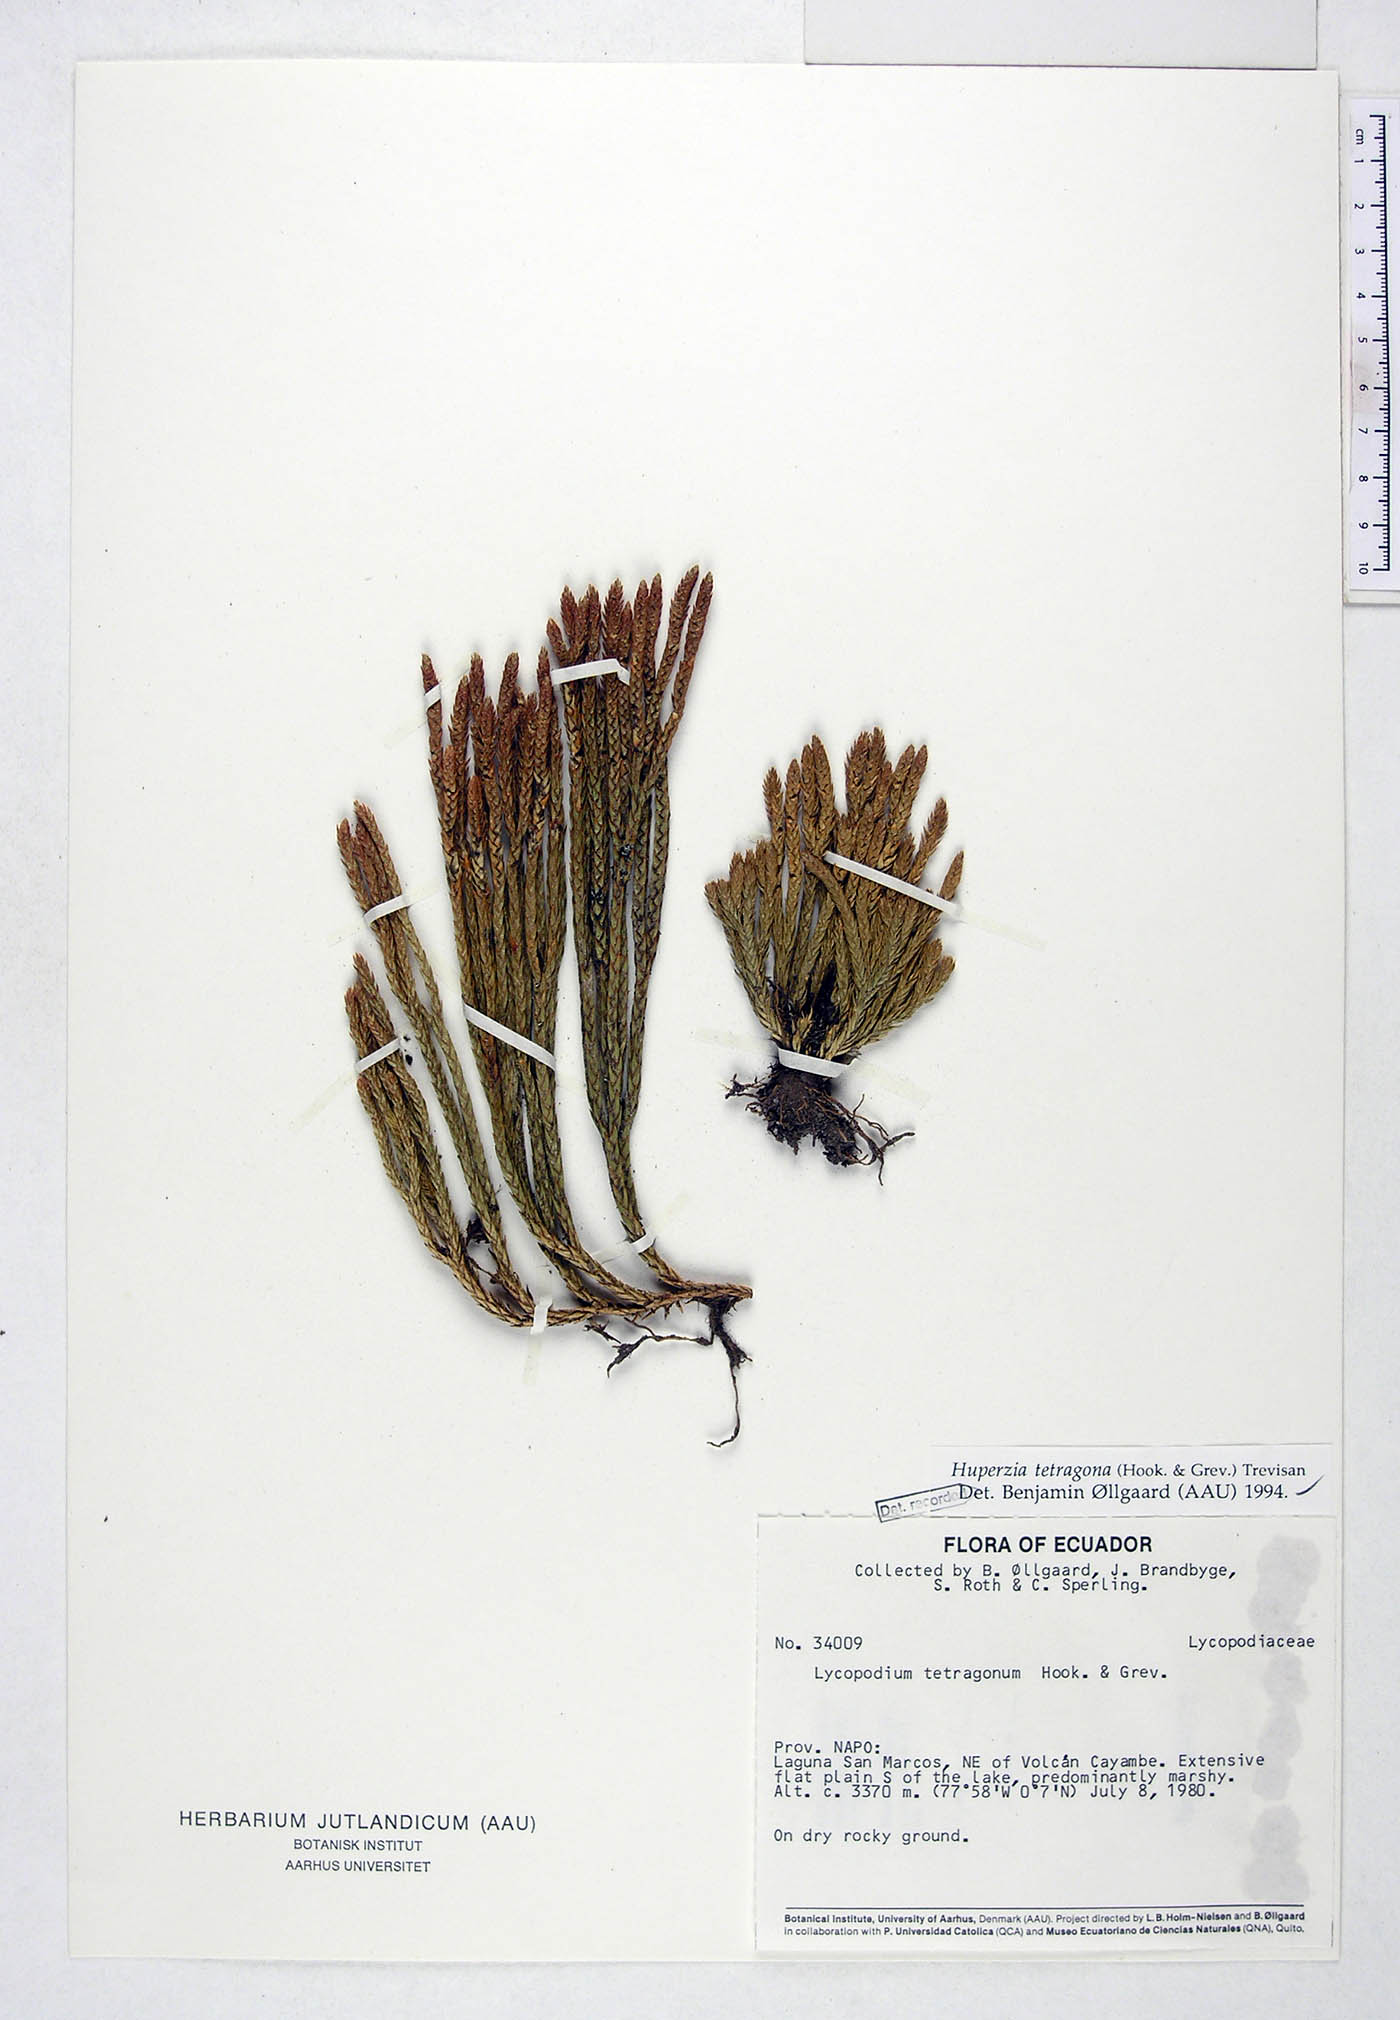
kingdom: Plantae
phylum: Tracheophyta
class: Lycopodiopsida
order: Lycopodiales
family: Lycopodiaceae
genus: Phlegmariurus
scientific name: Phlegmariurus tetragonus
